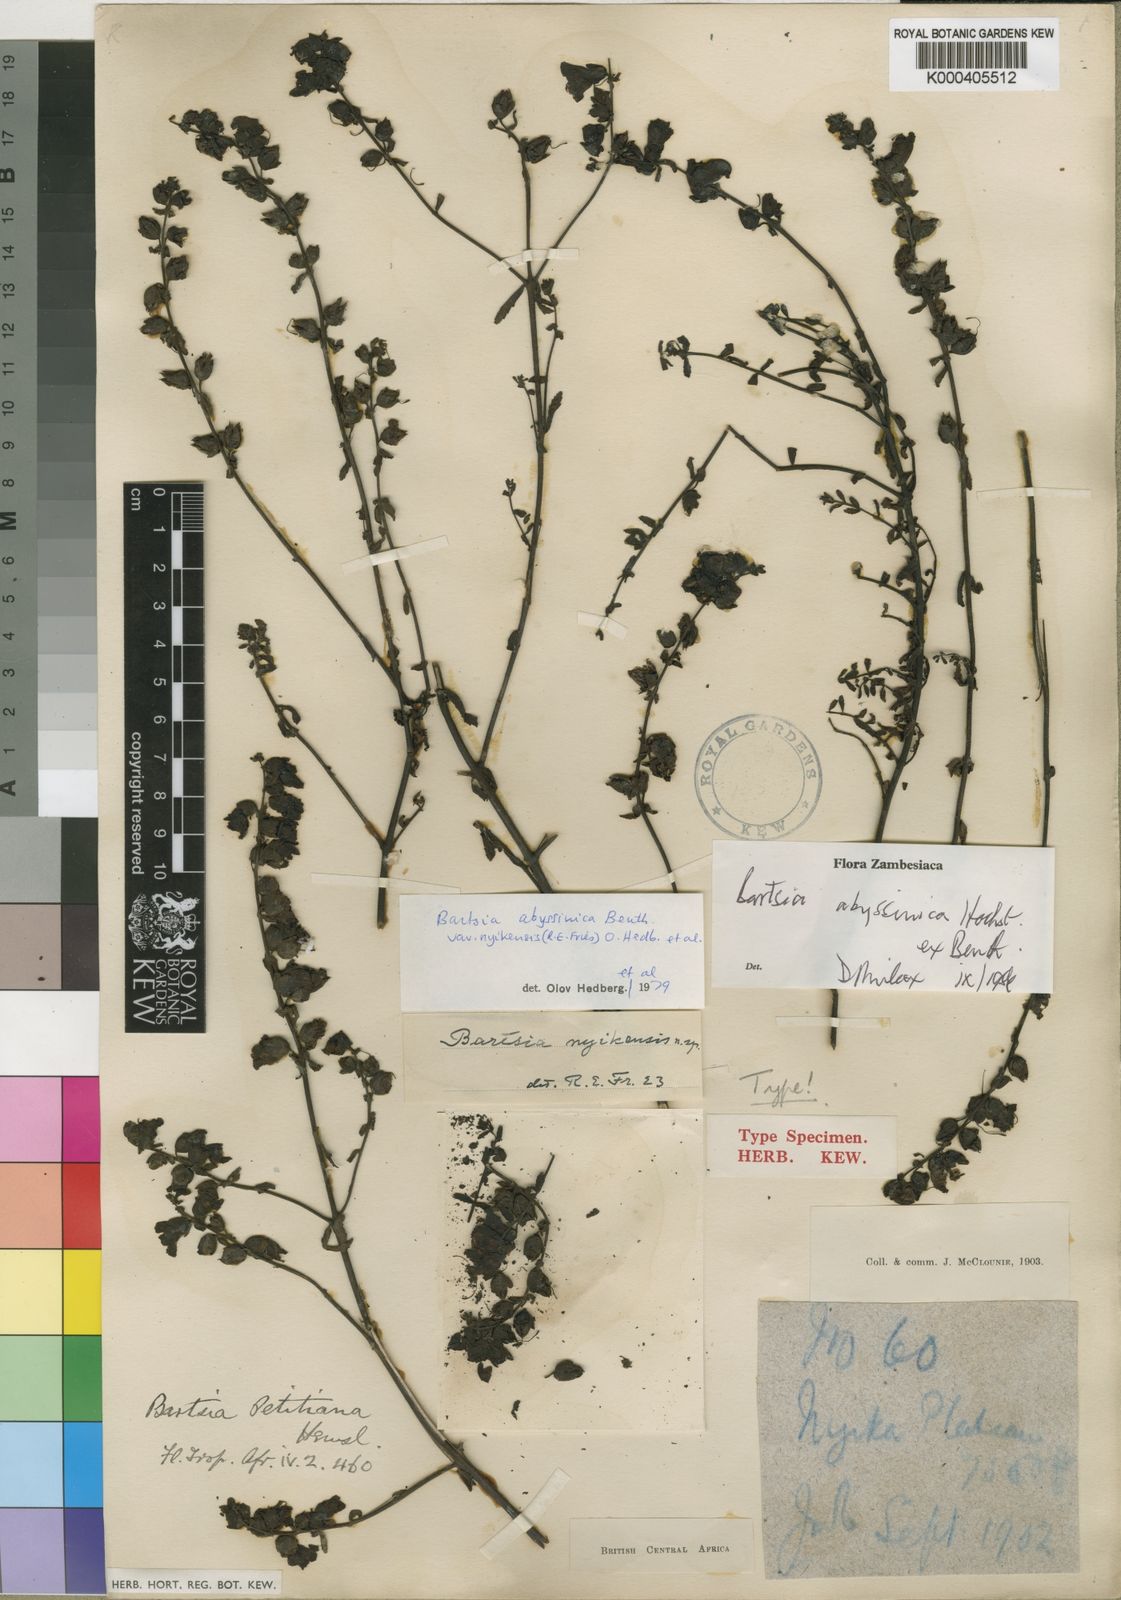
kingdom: Plantae
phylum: Tracheophyta
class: Magnoliopsida
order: Lamiales
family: Orobanchaceae
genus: Hedbergia
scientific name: Hedbergia abyssinica
